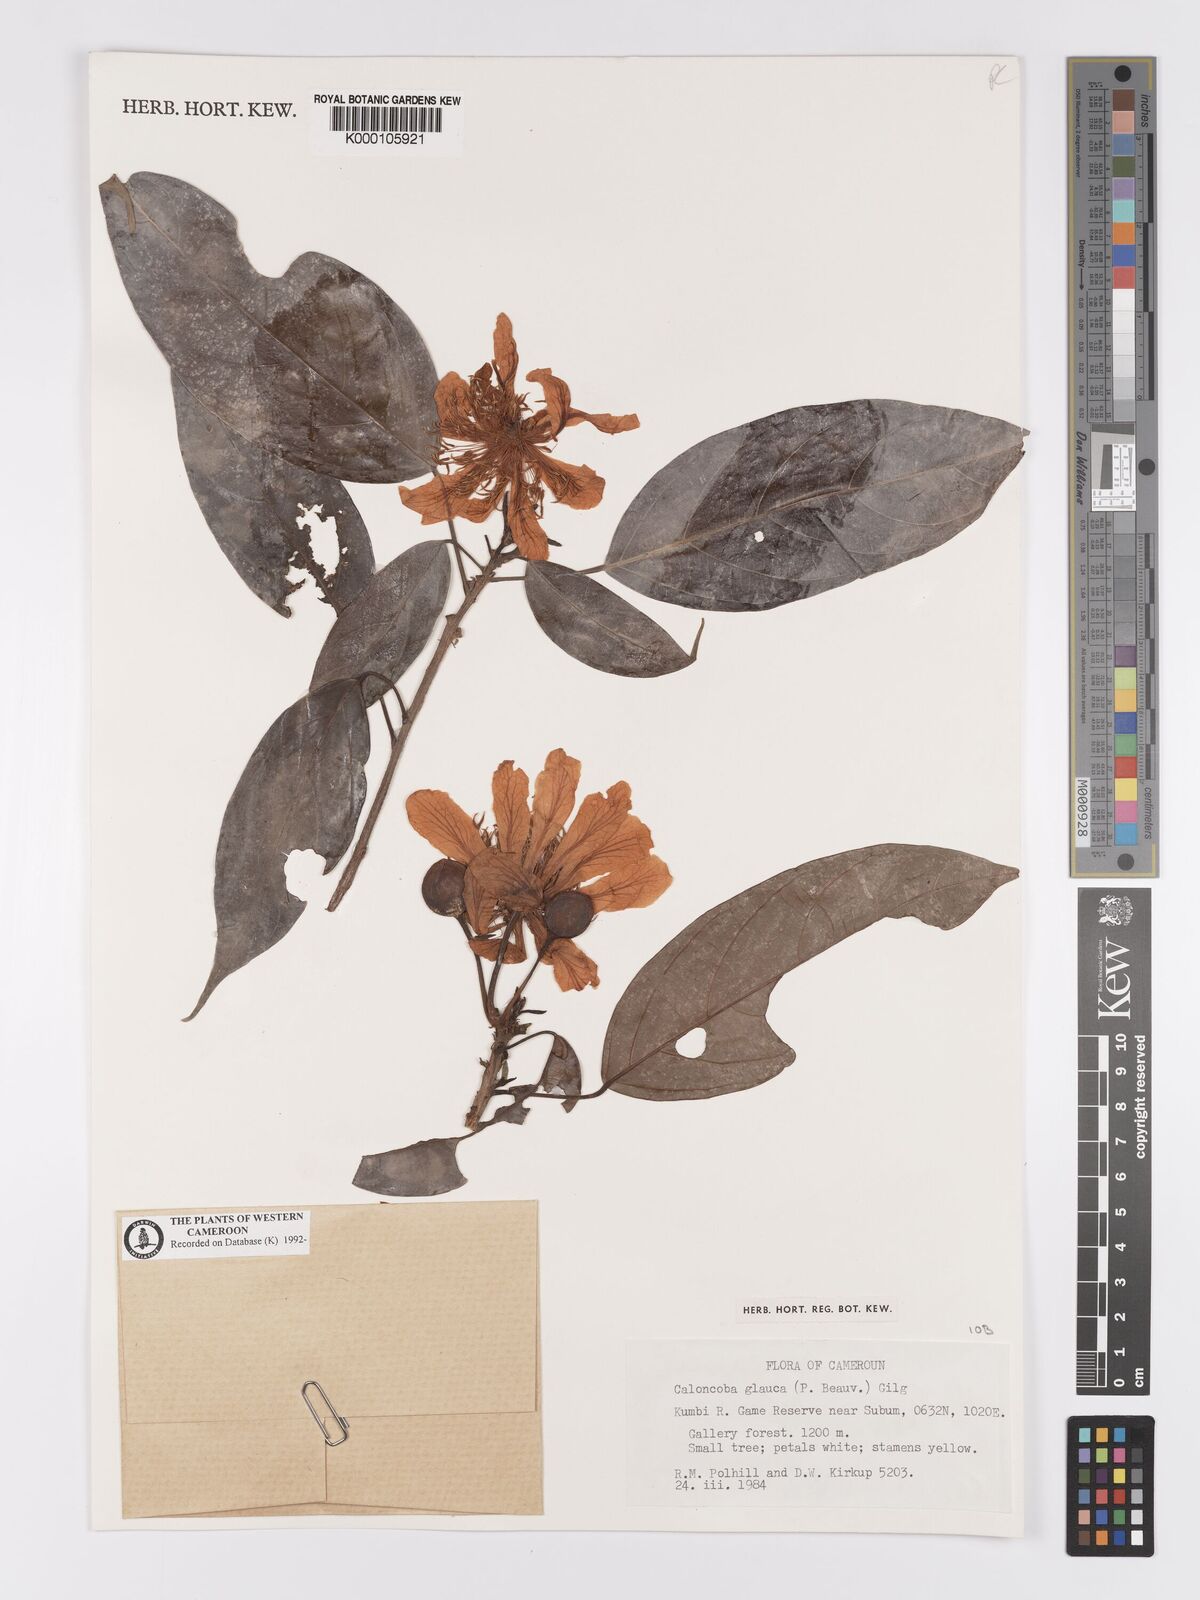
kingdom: Plantae
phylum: Tracheophyta
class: Magnoliopsida
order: Malpighiales
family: Achariaceae
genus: Caloncoba
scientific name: Caloncoba glauca
